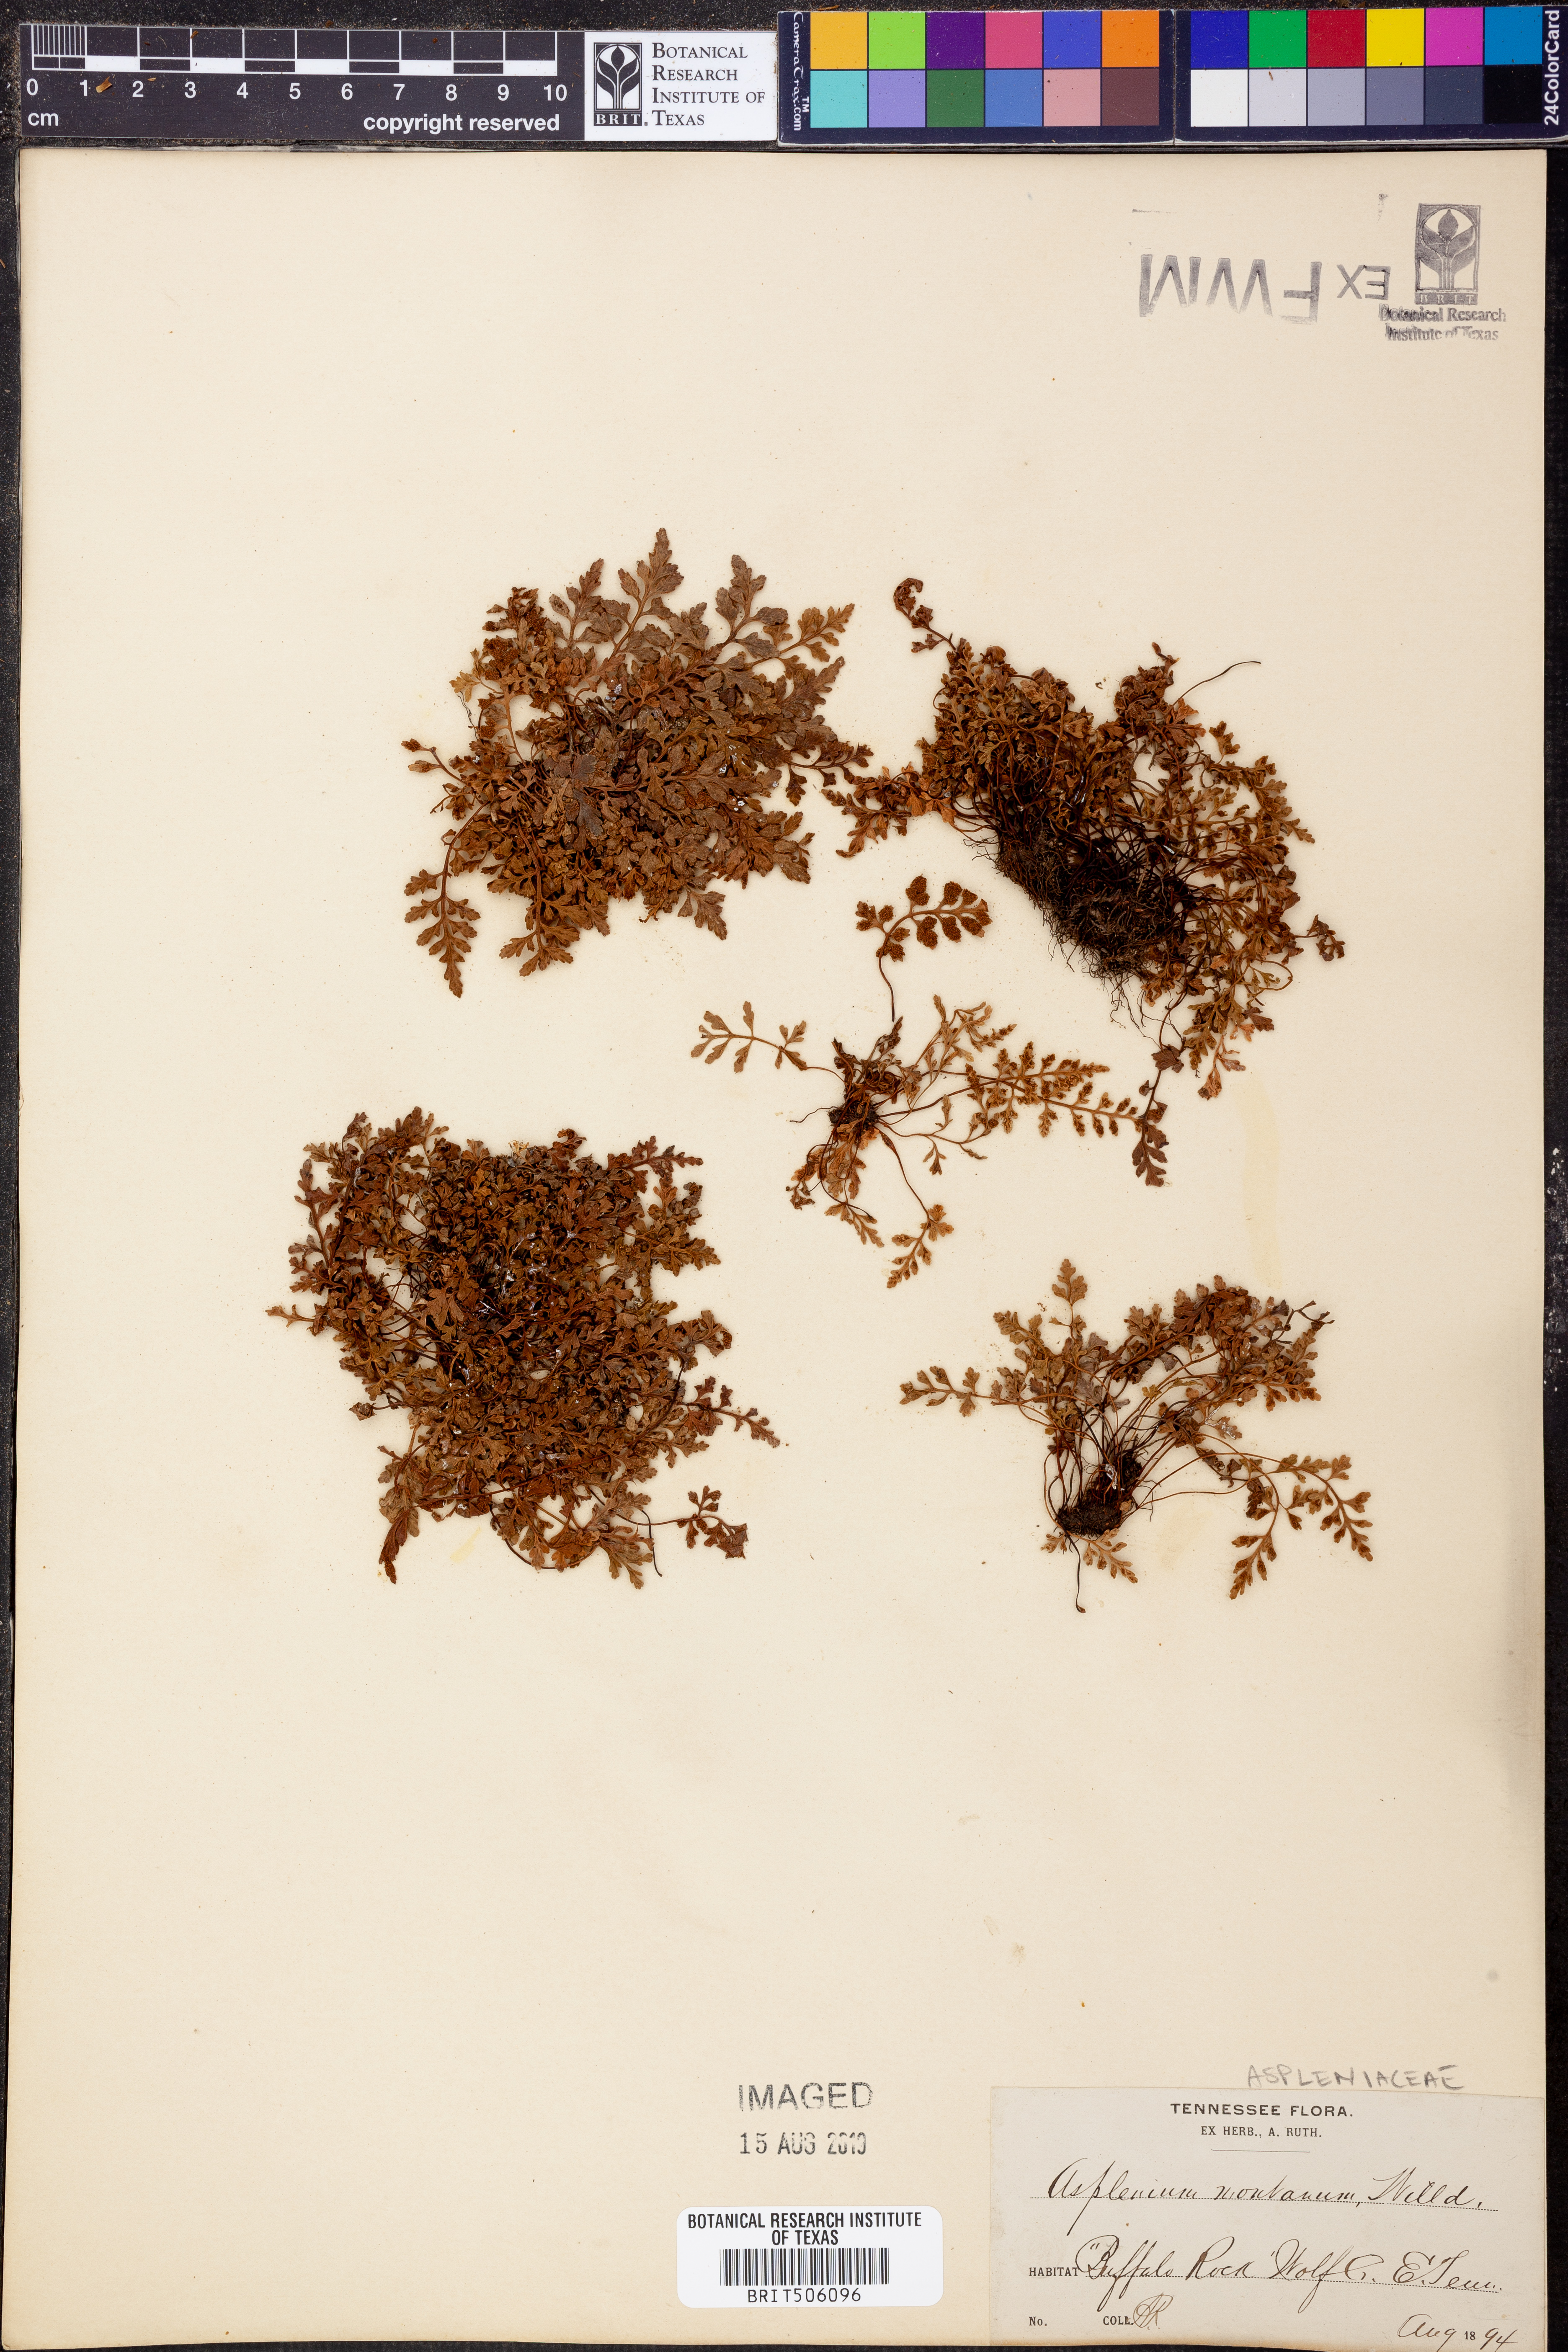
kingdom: Plantae
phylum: Tracheophyta
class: Polypodiopsida
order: Polypodiales
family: Aspleniaceae
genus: Asplenium
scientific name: Asplenium montanum
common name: Mountain spleenwort
